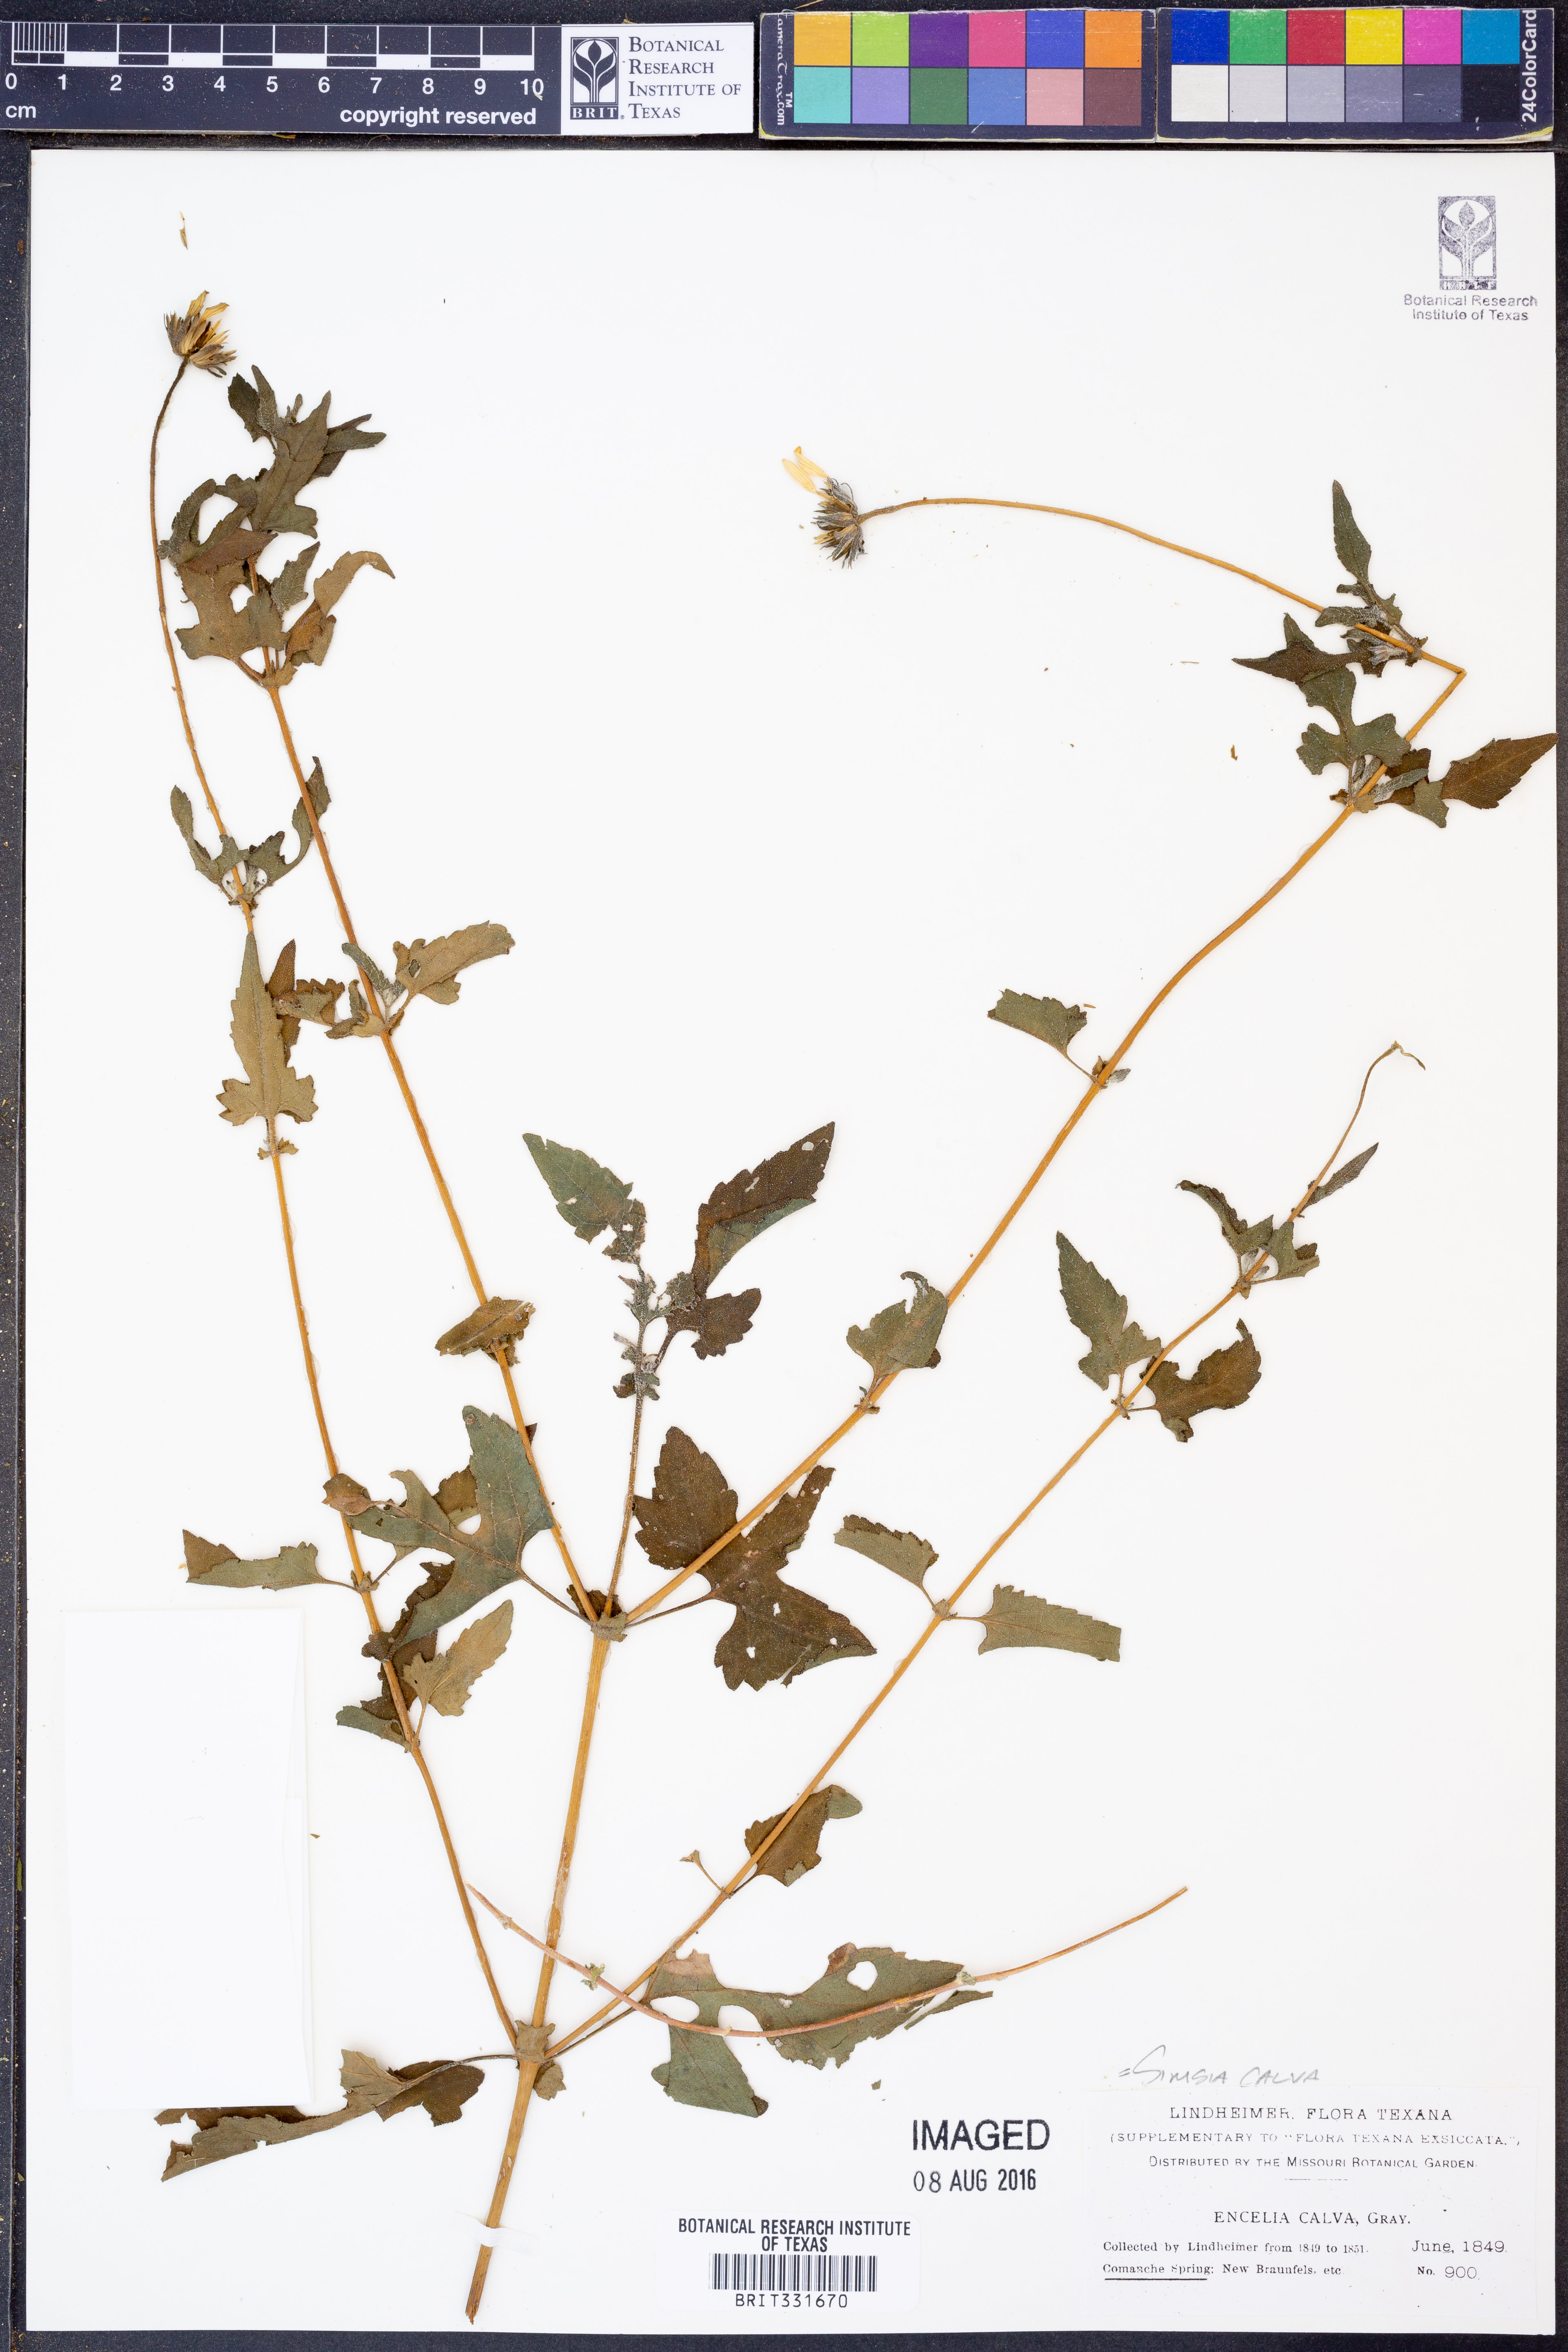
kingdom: Plantae
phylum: Tracheophyta
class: Magnoliopsida
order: Asterales
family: Asteraceae
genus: Simsia
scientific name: Simsia calva
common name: Awnless bush-sunflower
